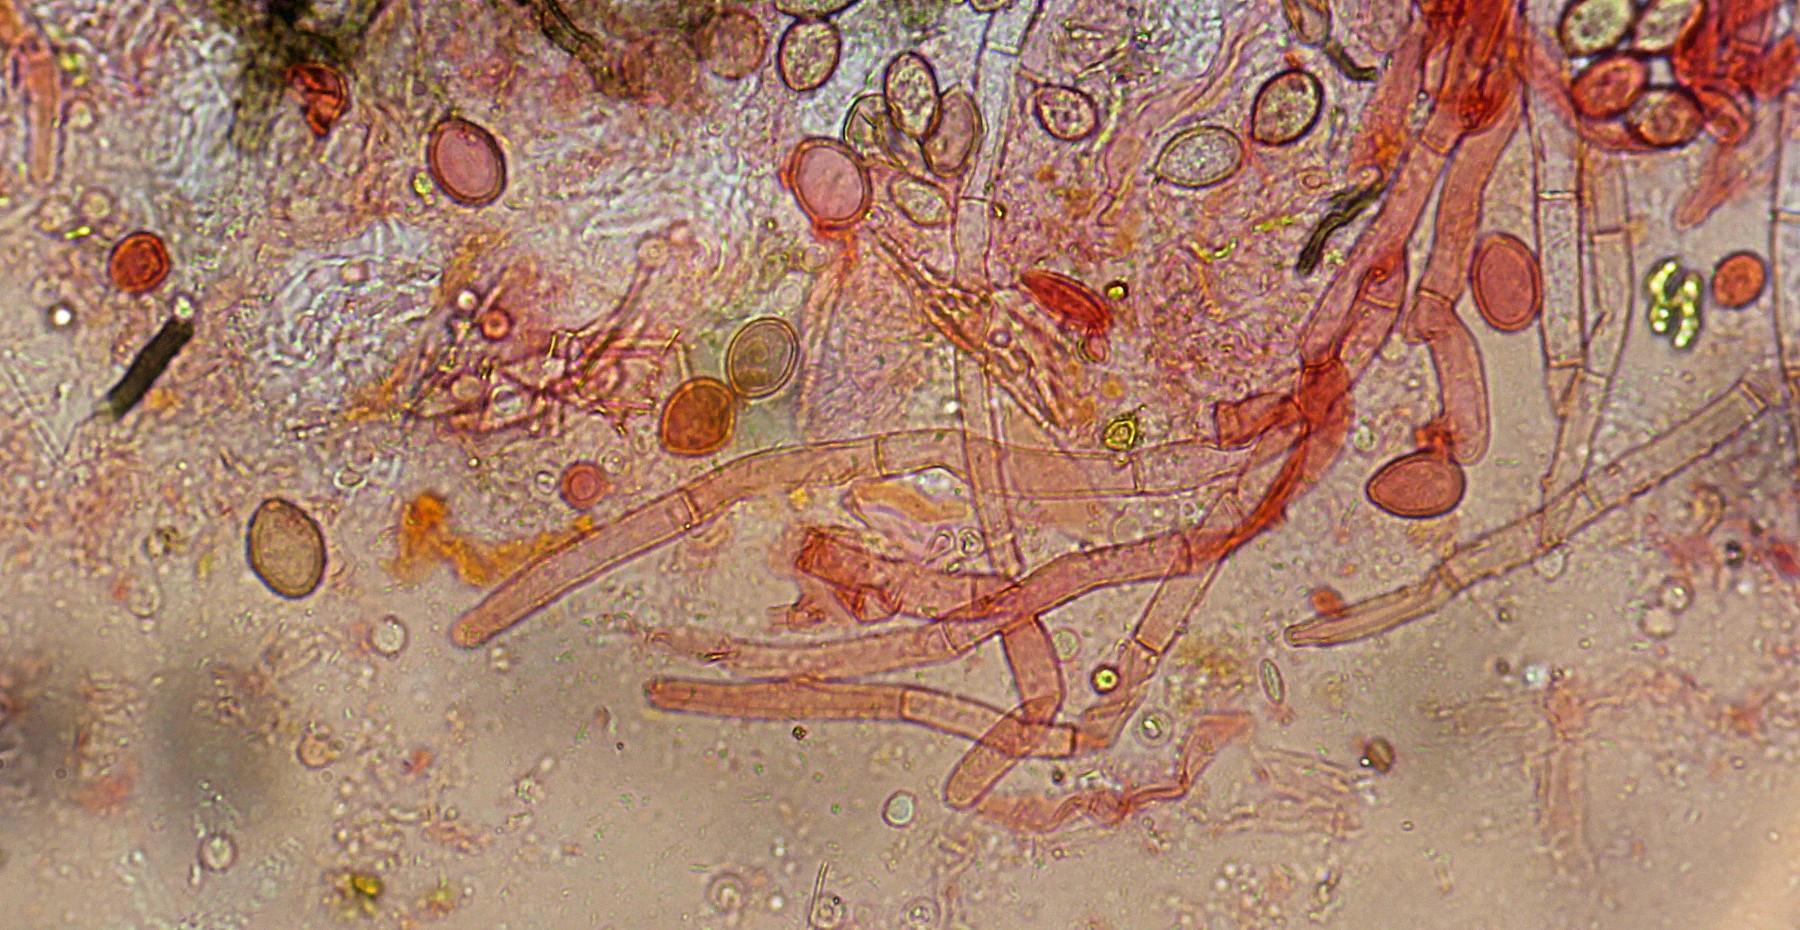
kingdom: Fungi
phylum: Basidiomycota
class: Agaricomycetes
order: Cantharellales
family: Botryobasidiaceae
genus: Botryobasidium
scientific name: Botryobasidium conspersum
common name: olivengrå spindhinde
